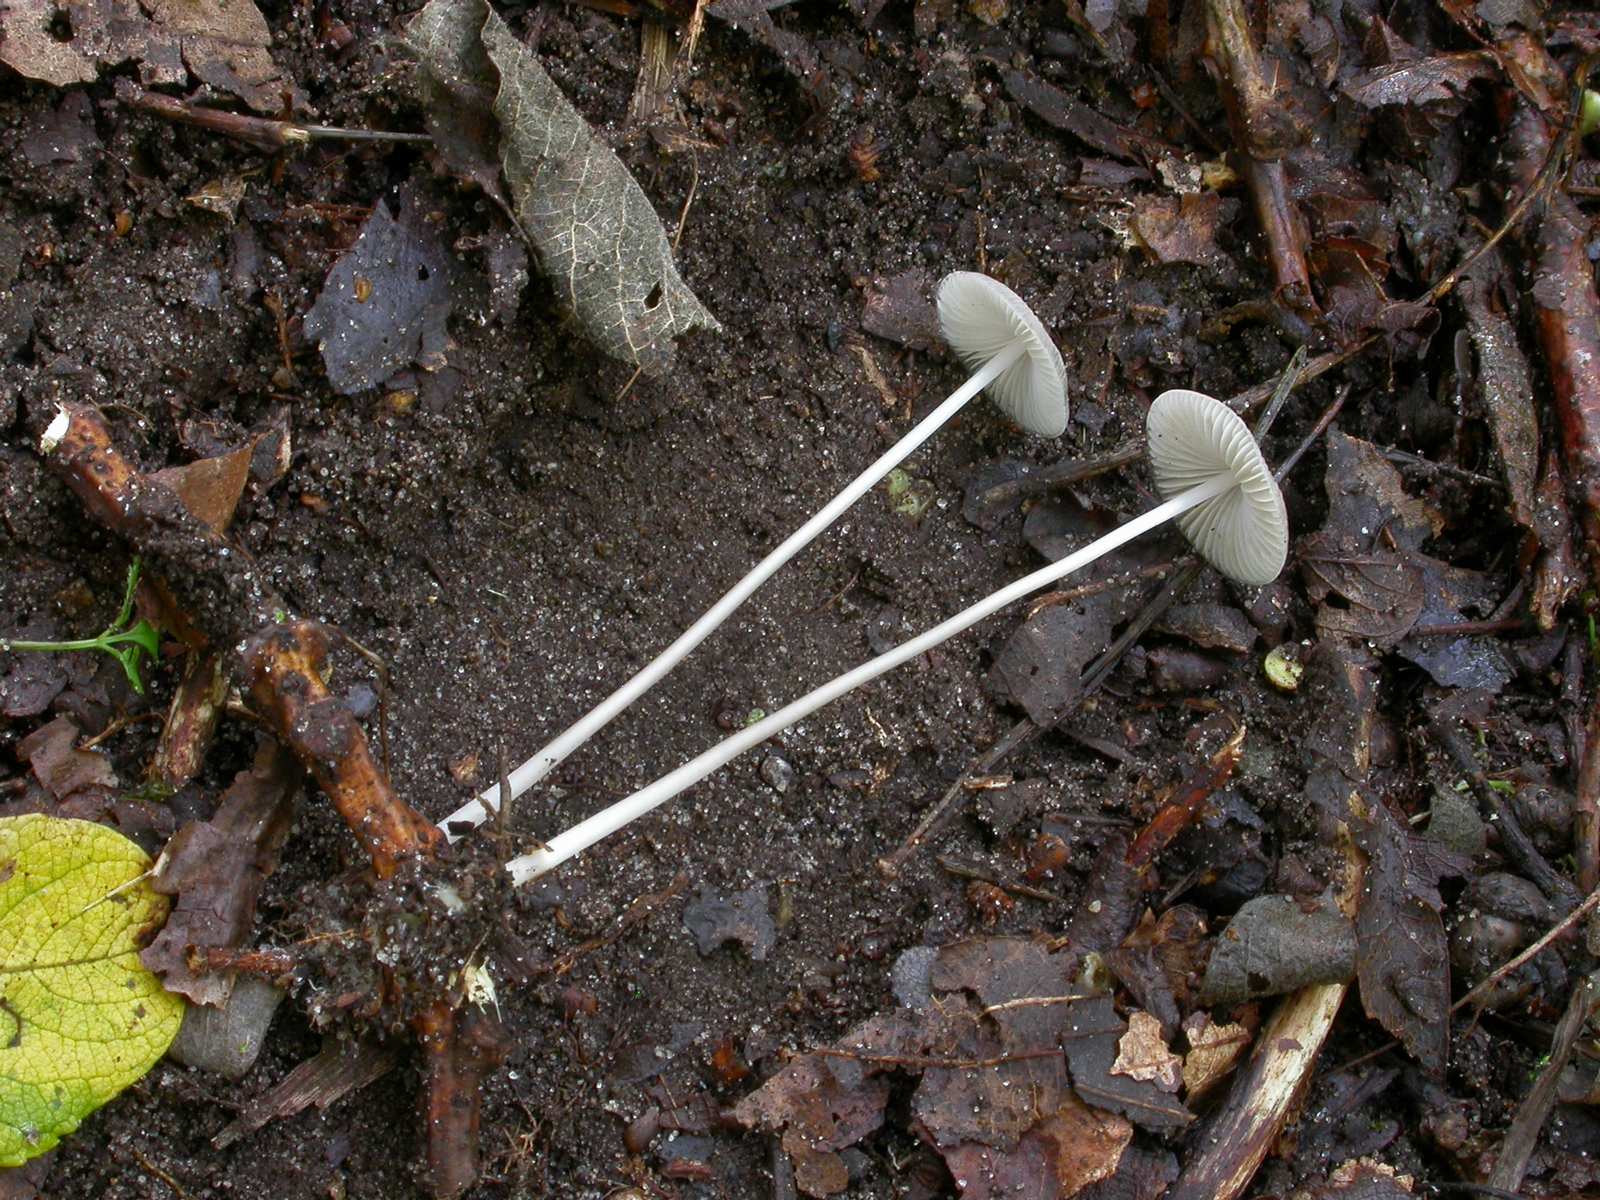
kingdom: Fungi
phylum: Basidiomycota
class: Agaricomycetes
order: Agaricales
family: Mycenaceae
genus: Mycena
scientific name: Mycena vitilis
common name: blankstokket huesvamp
